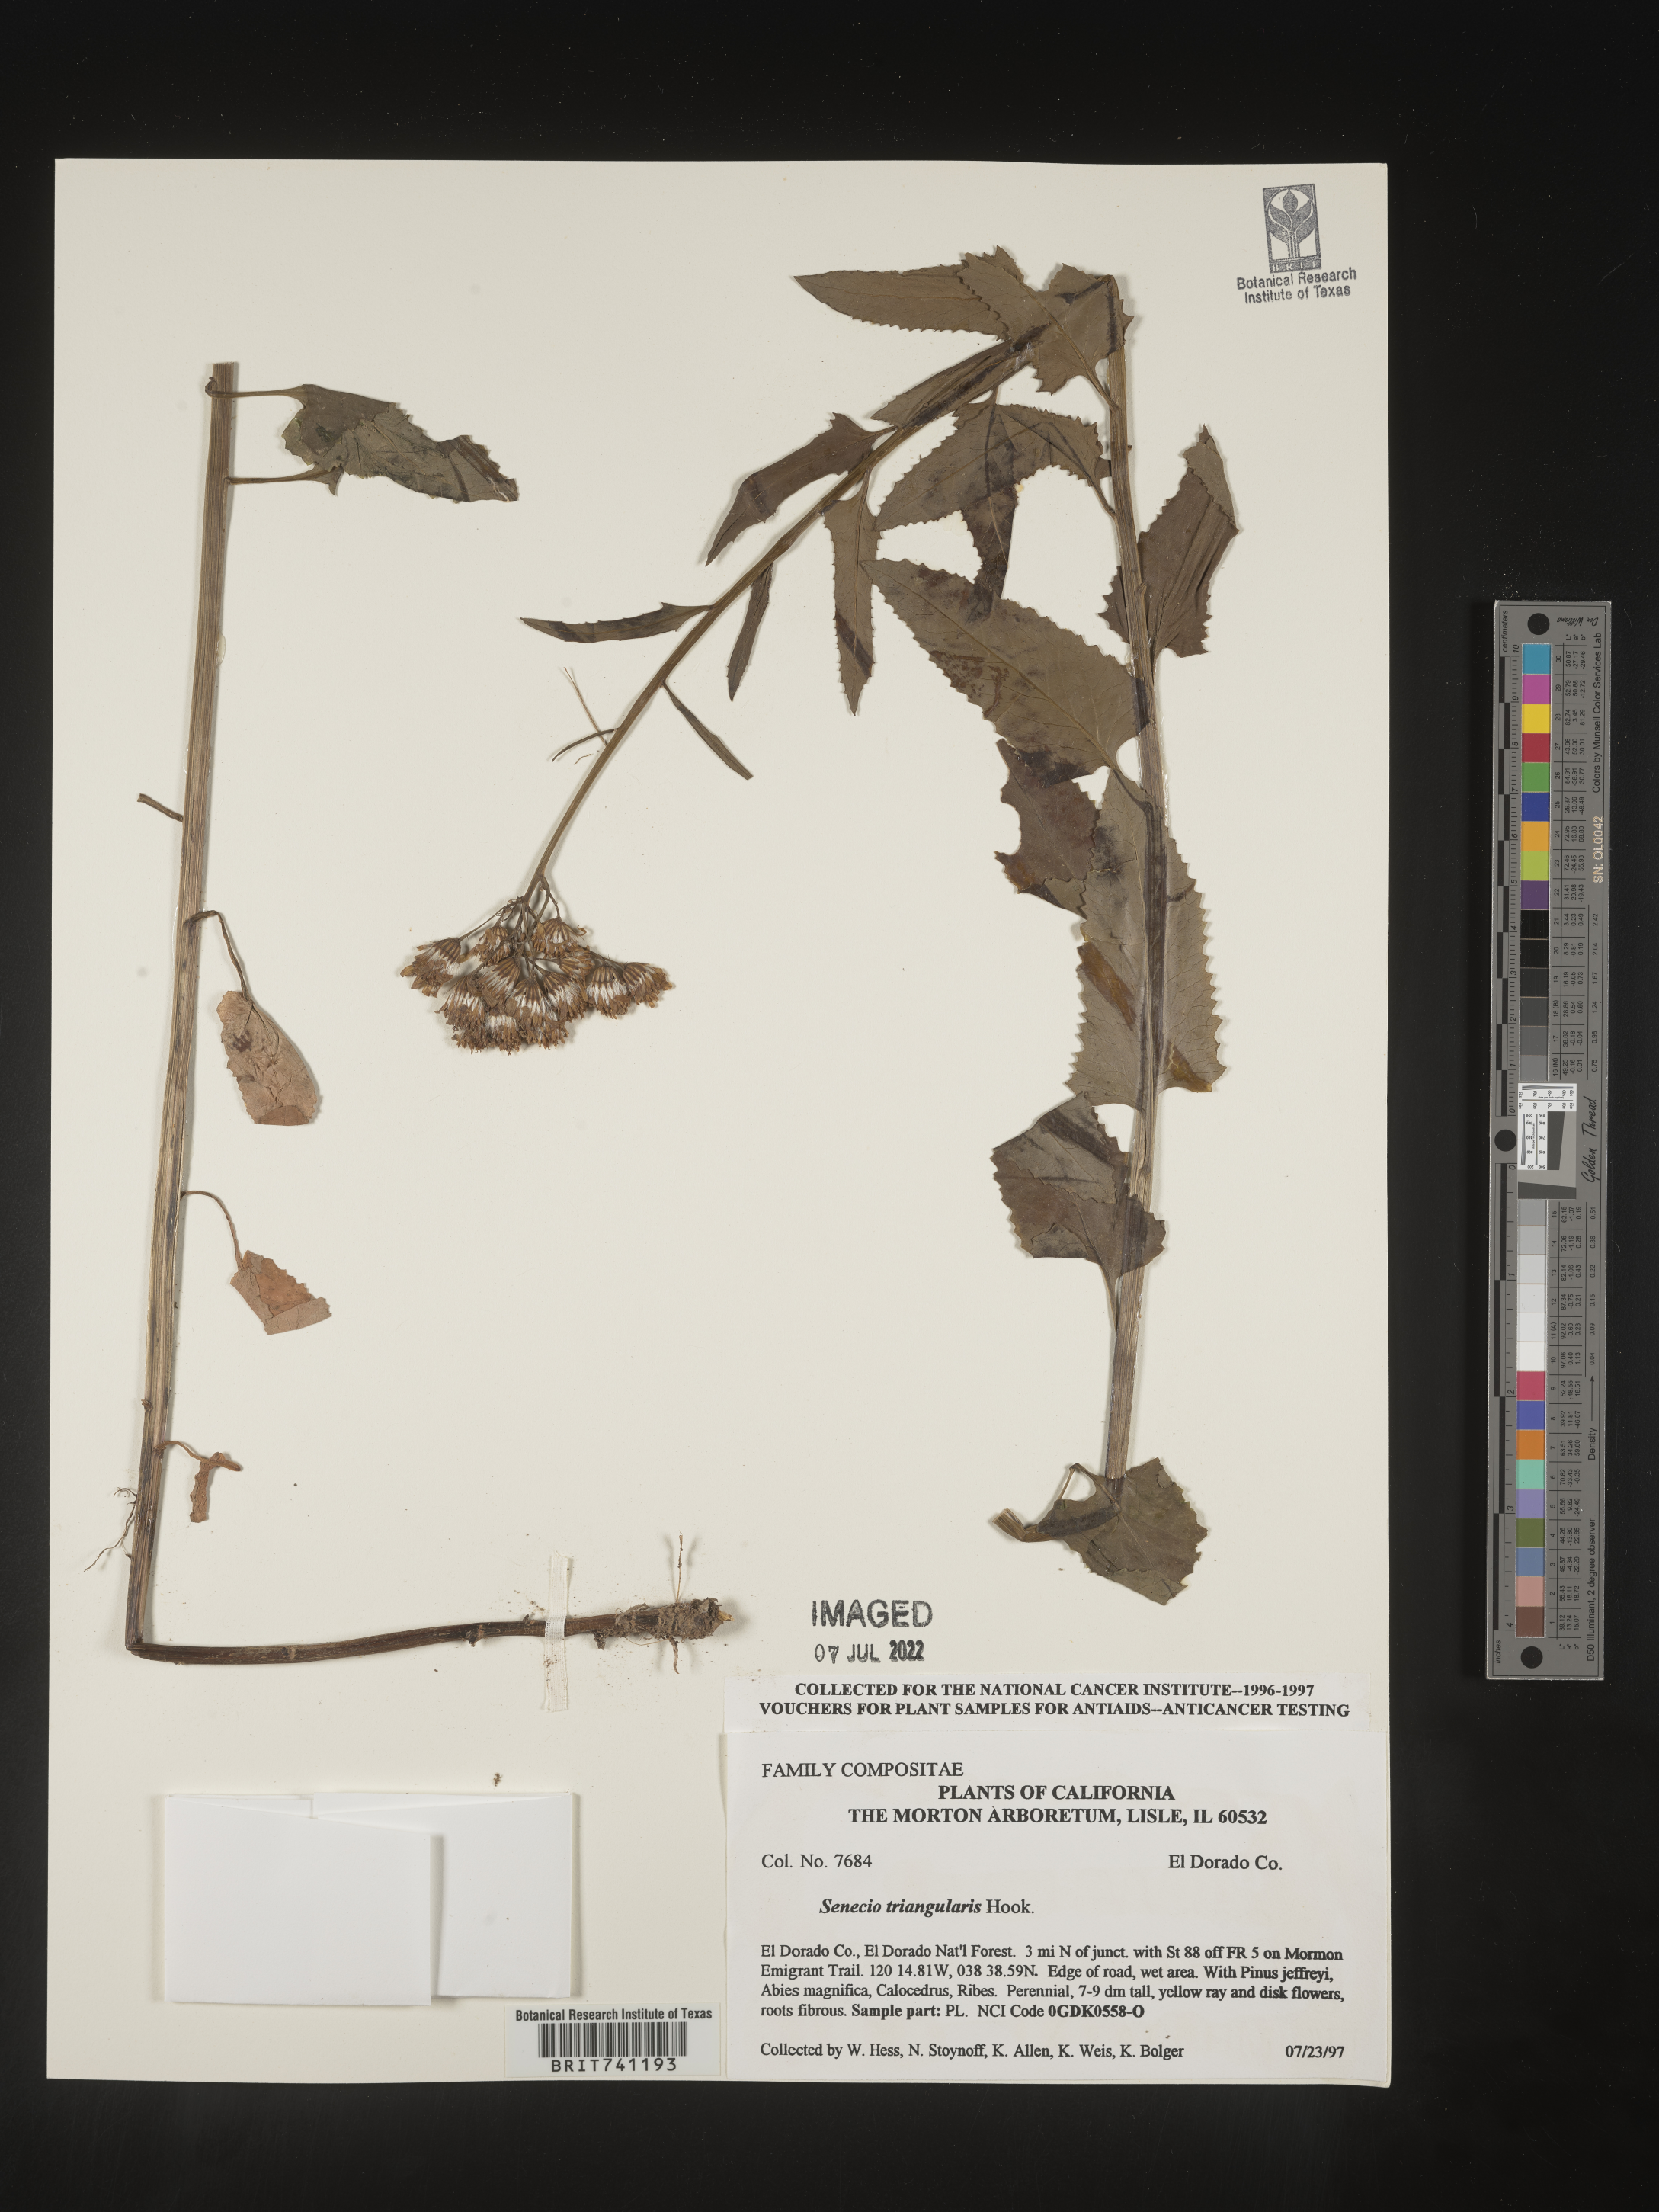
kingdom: Plantae
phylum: Tracheophyta
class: Magnoliopsida
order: Asterales
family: Asteraceae
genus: Senecio
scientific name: Senecio triangularis
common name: Arrowleaf butterweed
